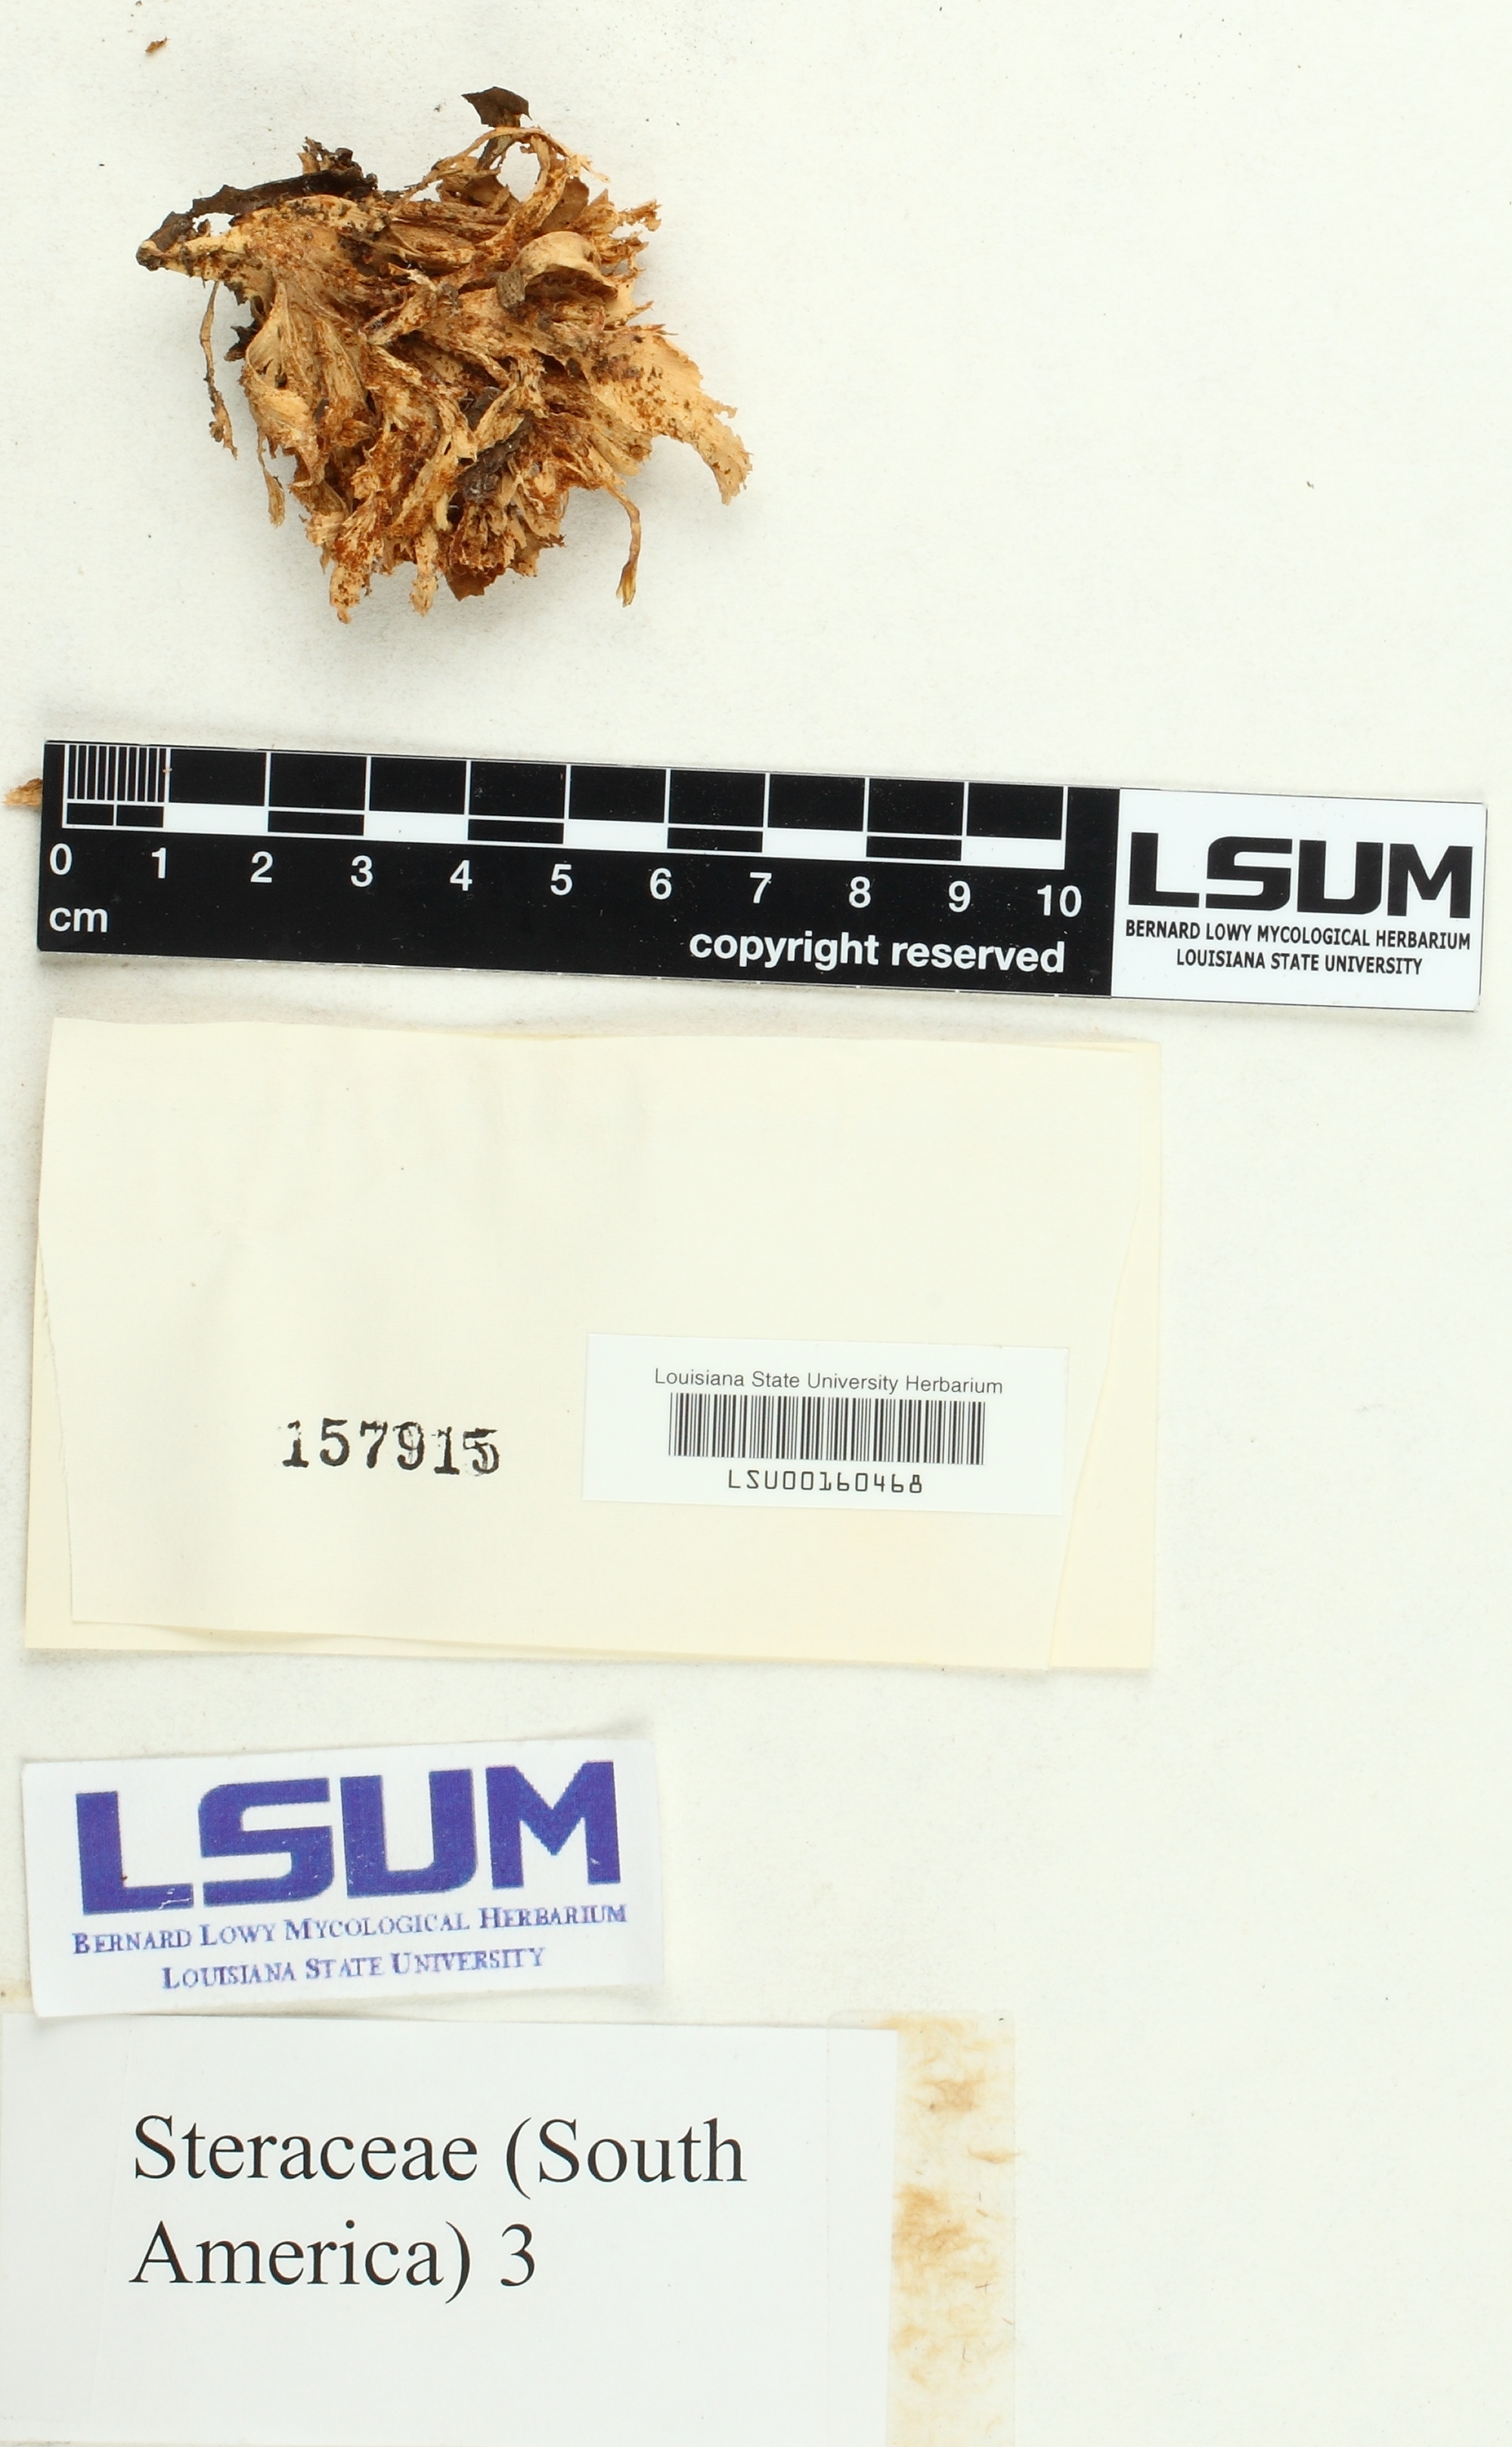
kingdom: Fungi
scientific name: Fungi
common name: Fungi
